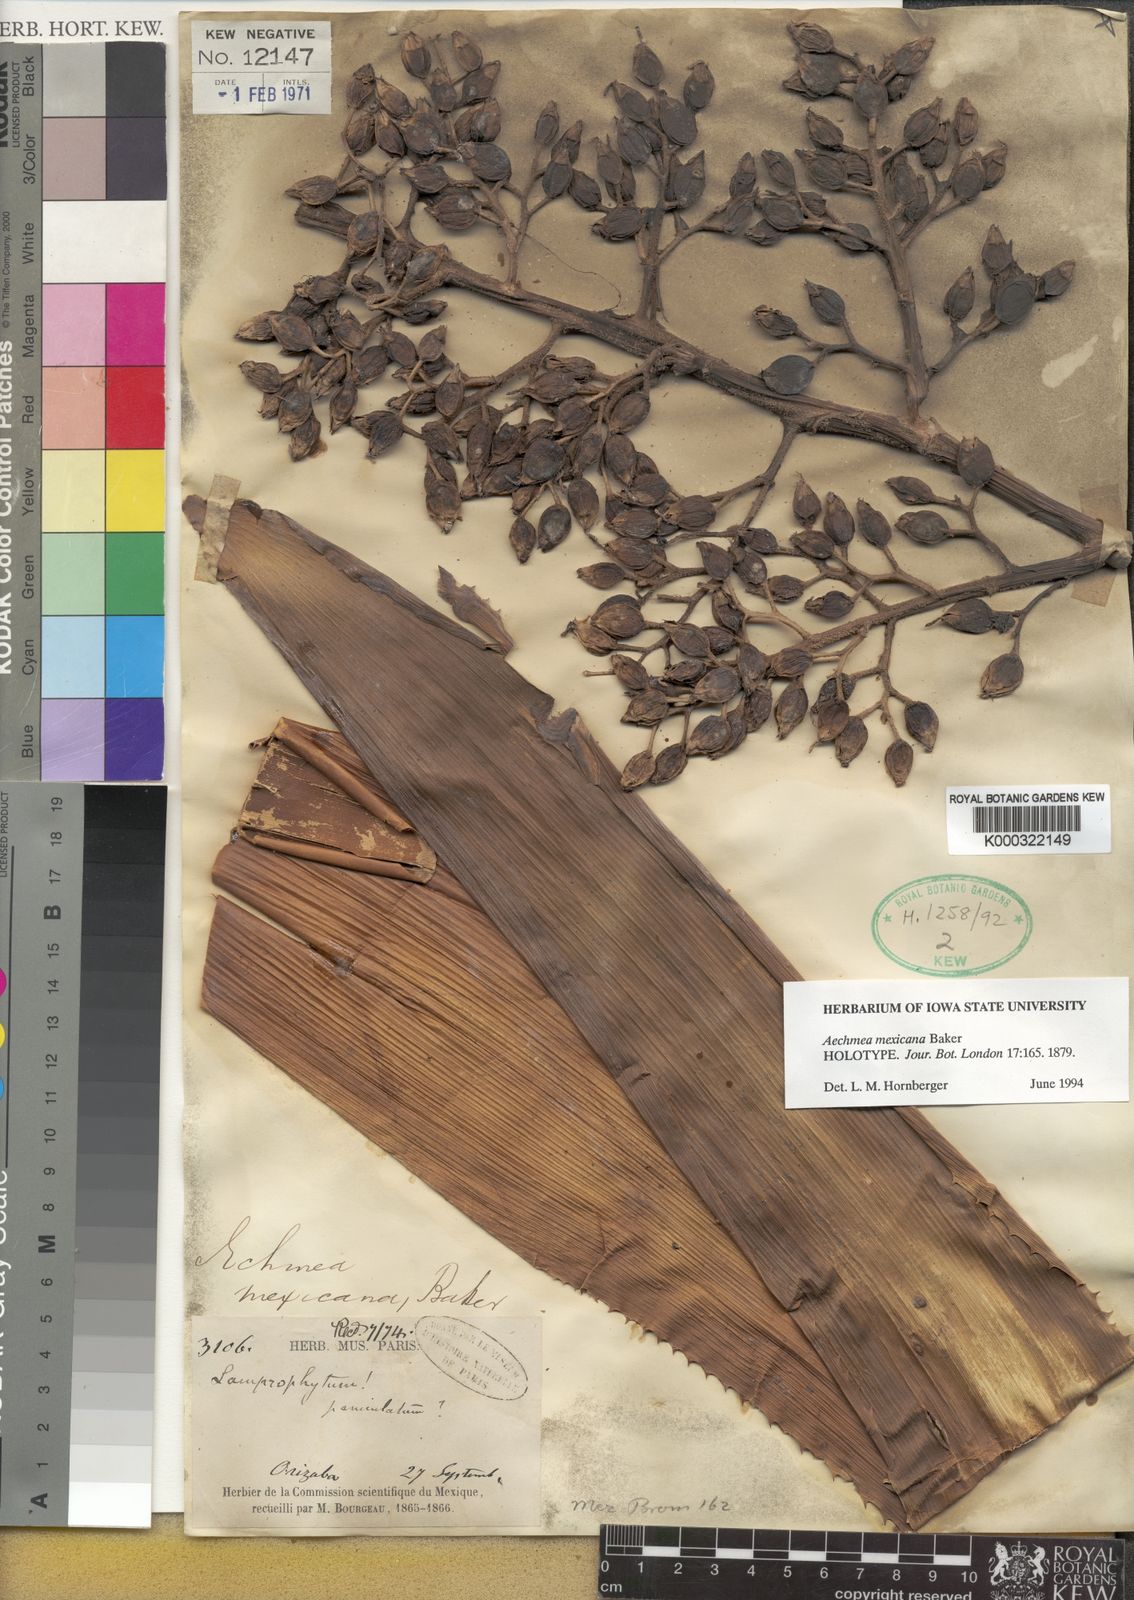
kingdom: Plantae
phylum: Tracheophyta
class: Liliopsida
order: Poales
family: Bromeliaceae
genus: Aechmea
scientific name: Aechmea mexicana
